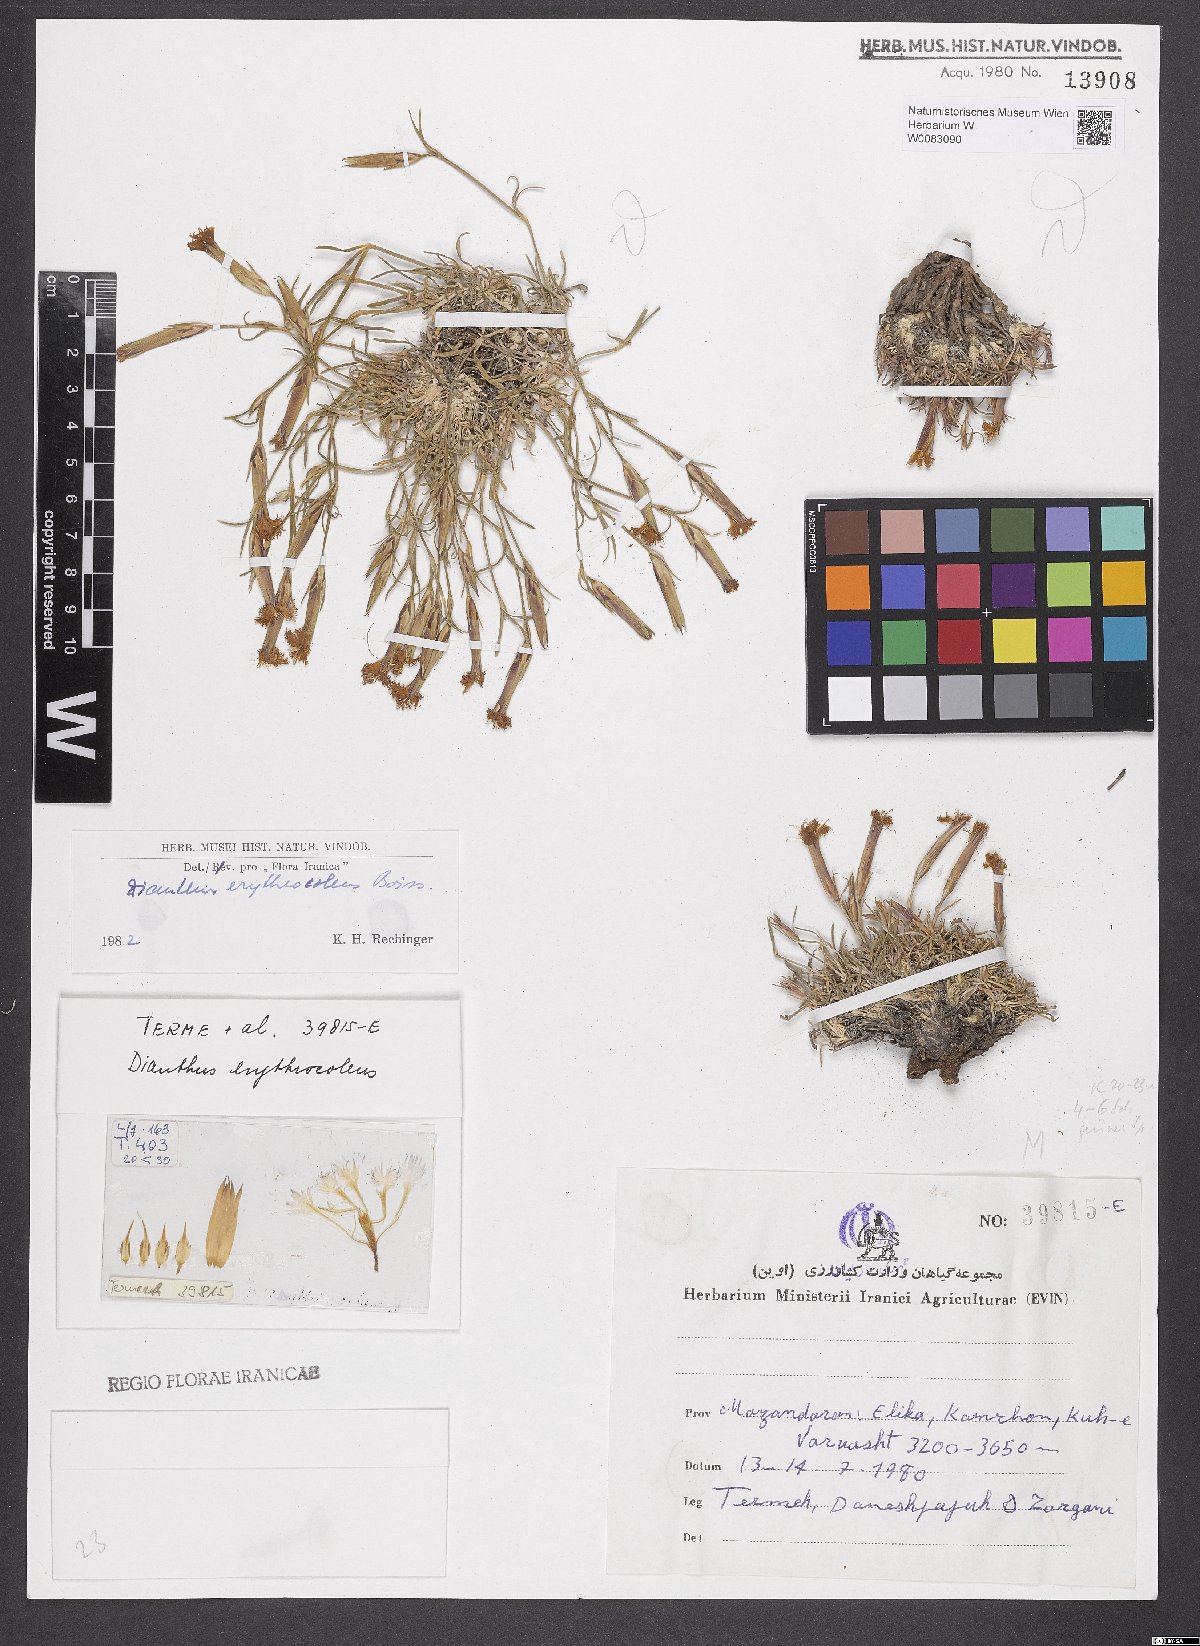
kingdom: Plantae
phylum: Tracheophyta
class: Magnoliopsida
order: Caryophyllales
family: Caryophyllaceae
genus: Dianthus
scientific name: Dianthus erythrocoleus
